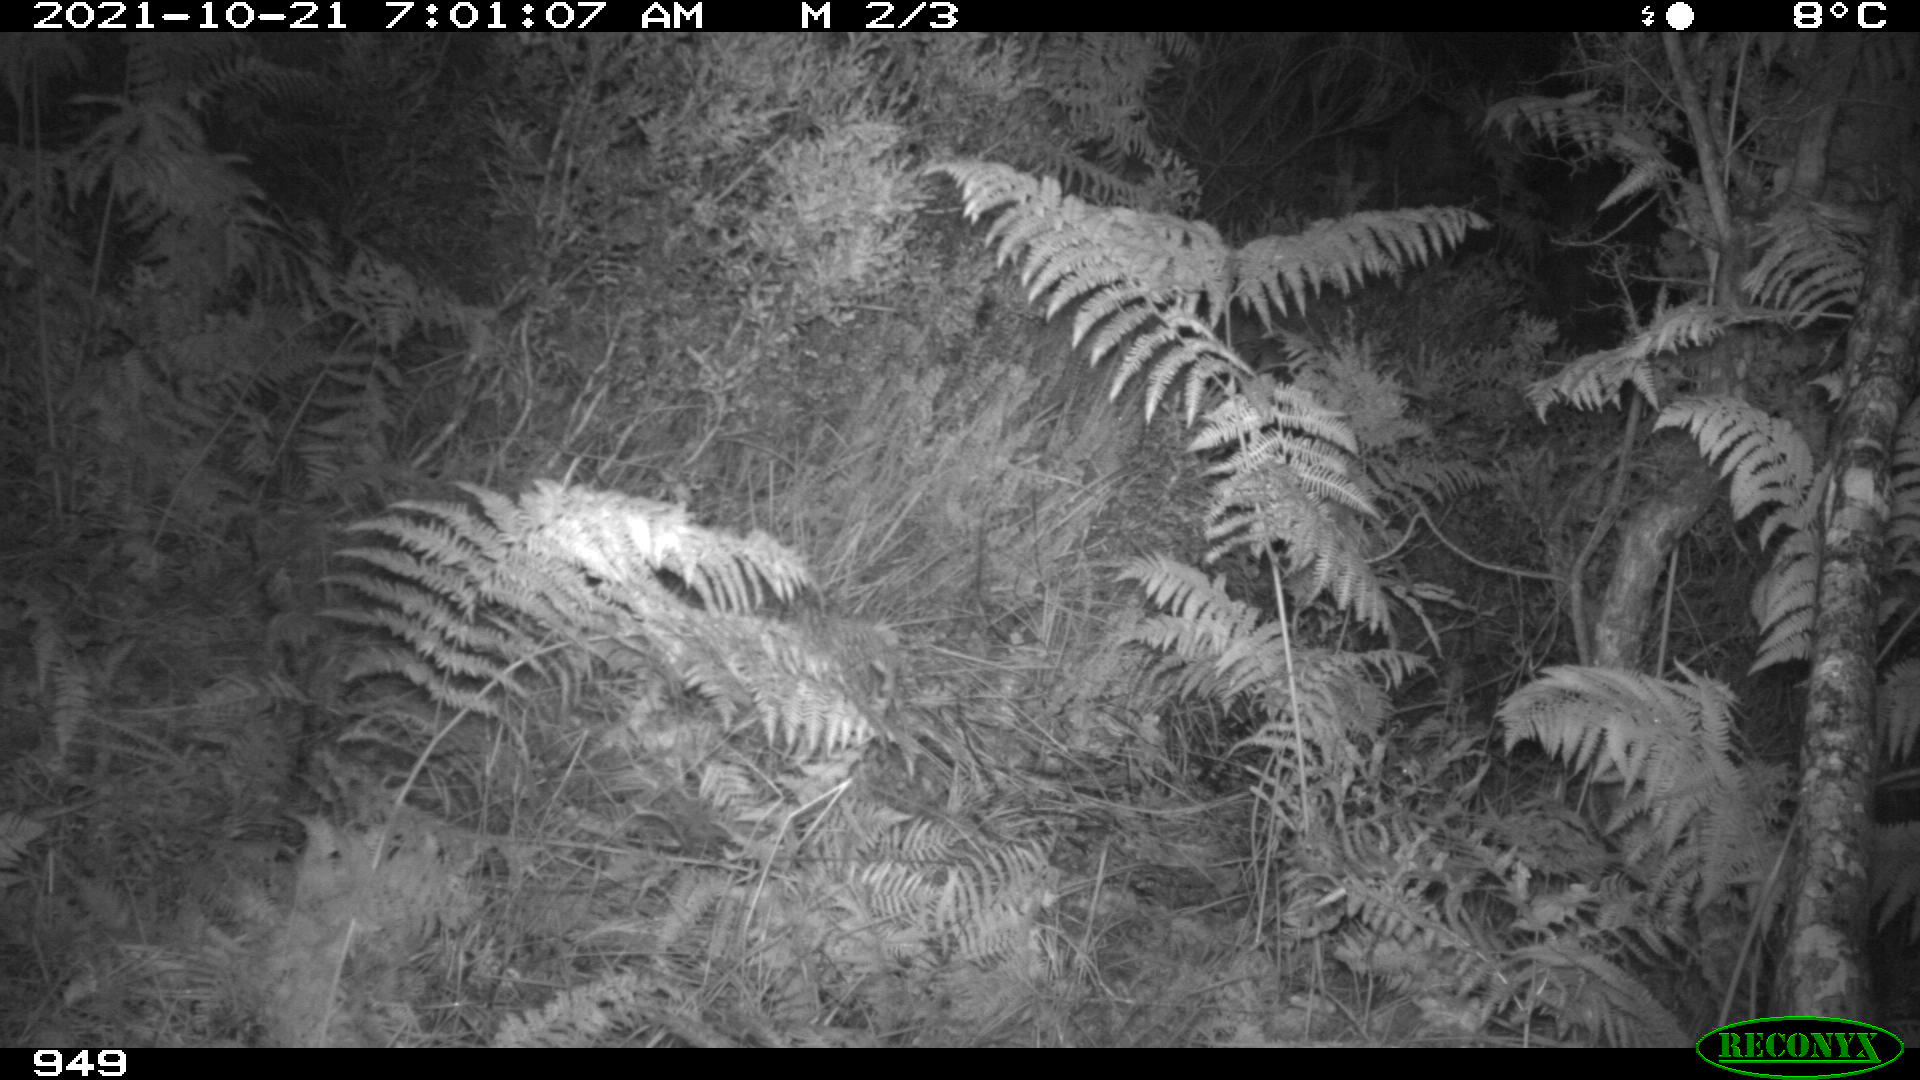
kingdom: Animalia
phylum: Chordata
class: Mammalia
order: Perissodactyla
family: Equidae
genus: Equus
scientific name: Equus caballus
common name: Horse
